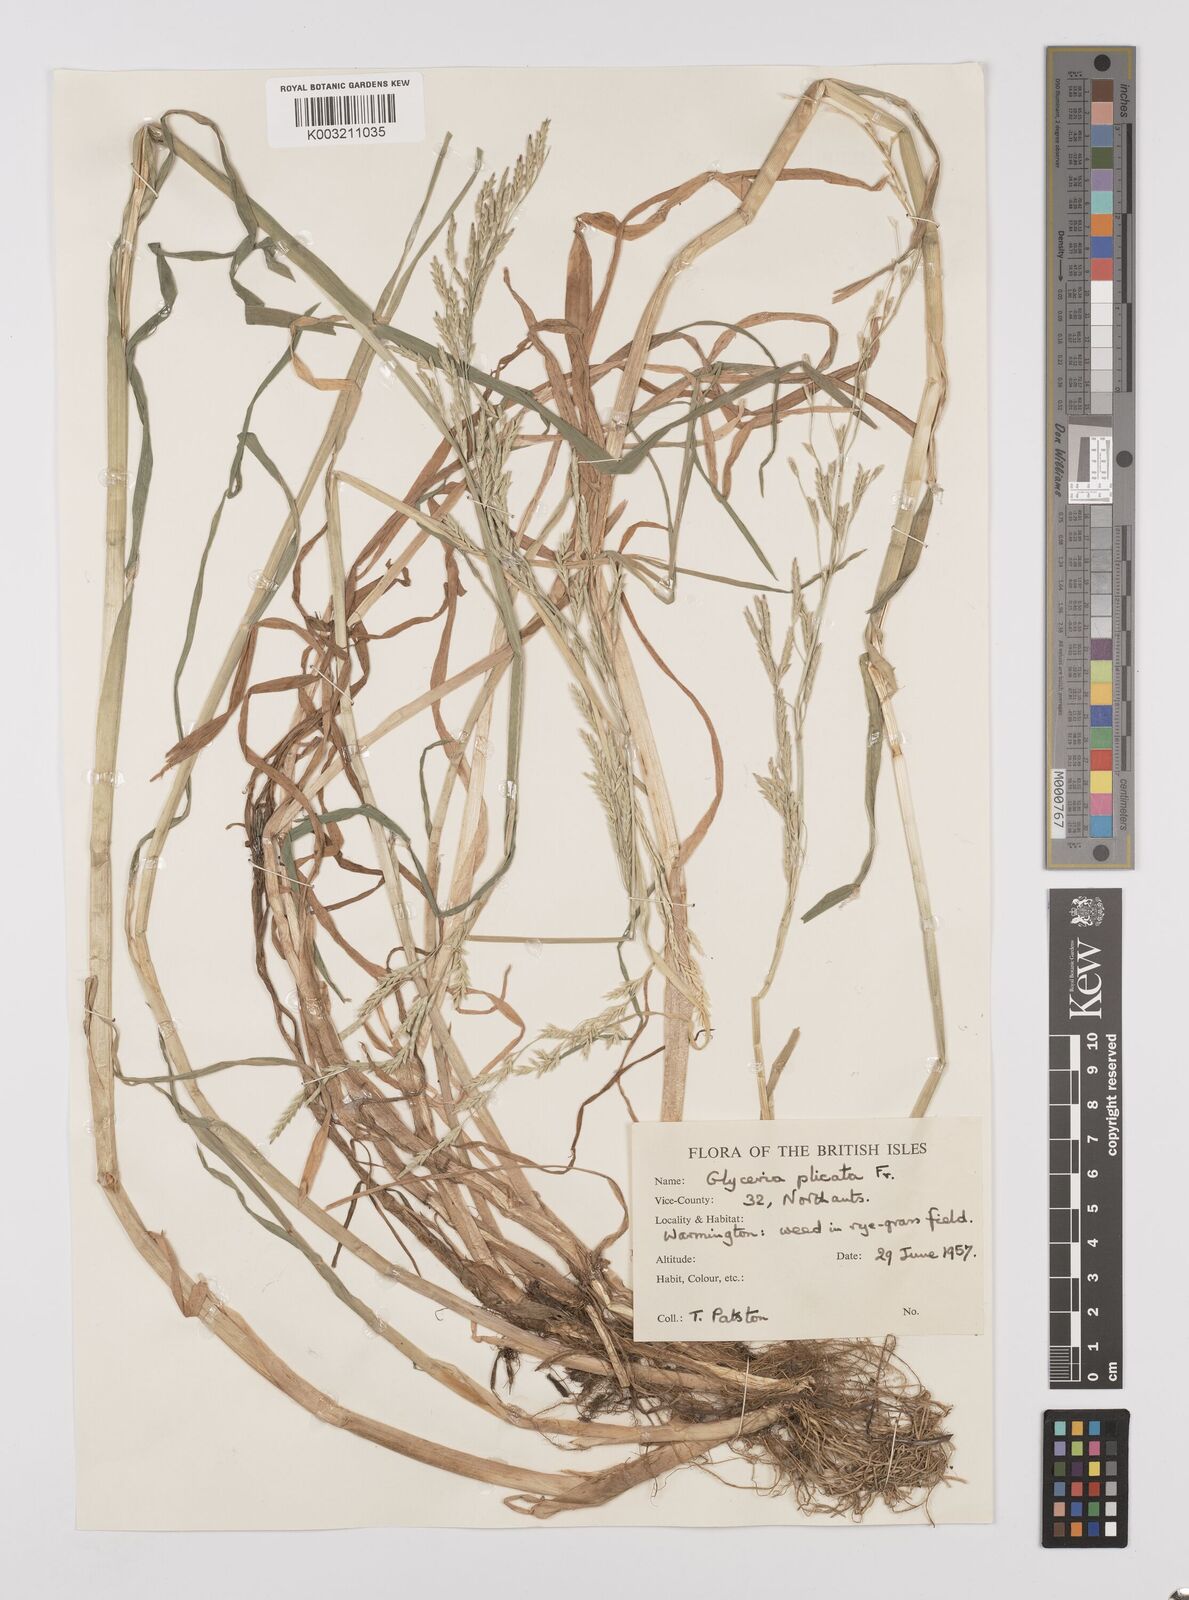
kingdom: Plantae
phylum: Tracheophyta
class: Liliopsida
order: Poales
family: Poaceae
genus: Glyceria
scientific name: Glyceria notata
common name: Plicate sweet-grass
